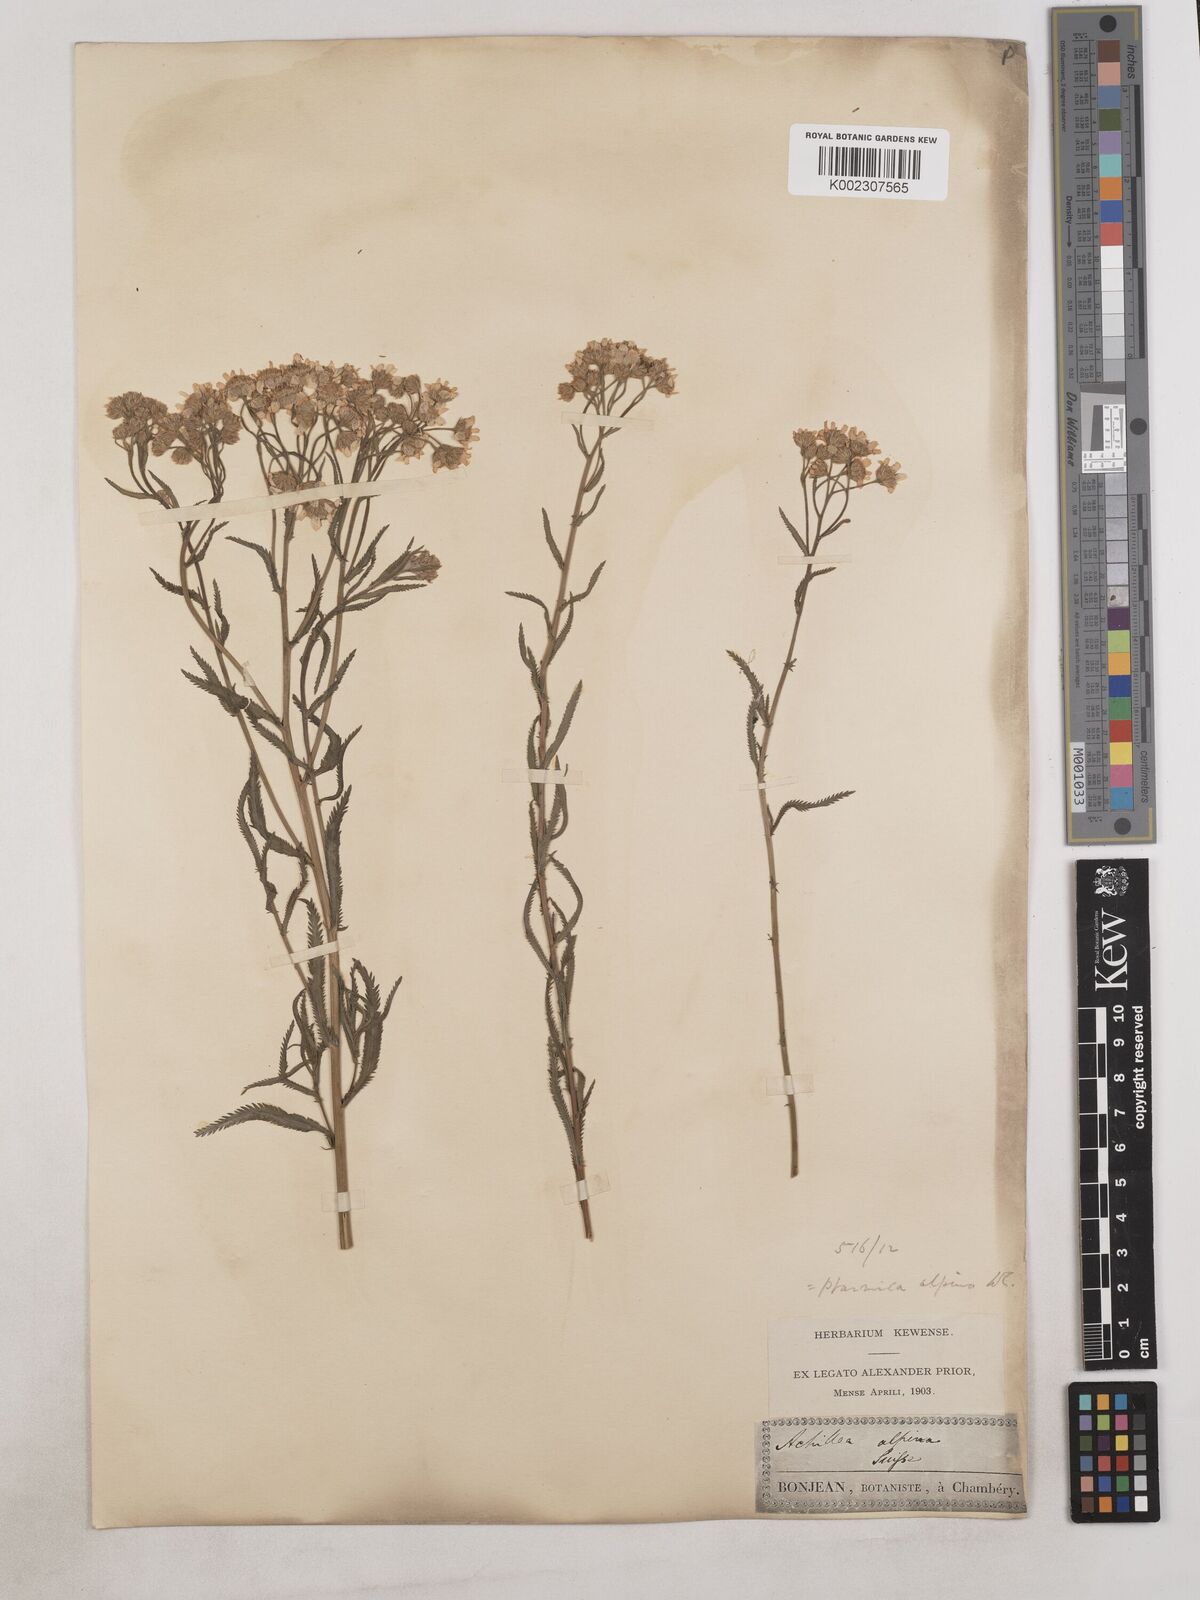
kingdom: Plantae
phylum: Tracheophyta
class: Magnoliopsida
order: Asterales
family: Asteraceae
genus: Achillea
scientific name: Achillea serrata
